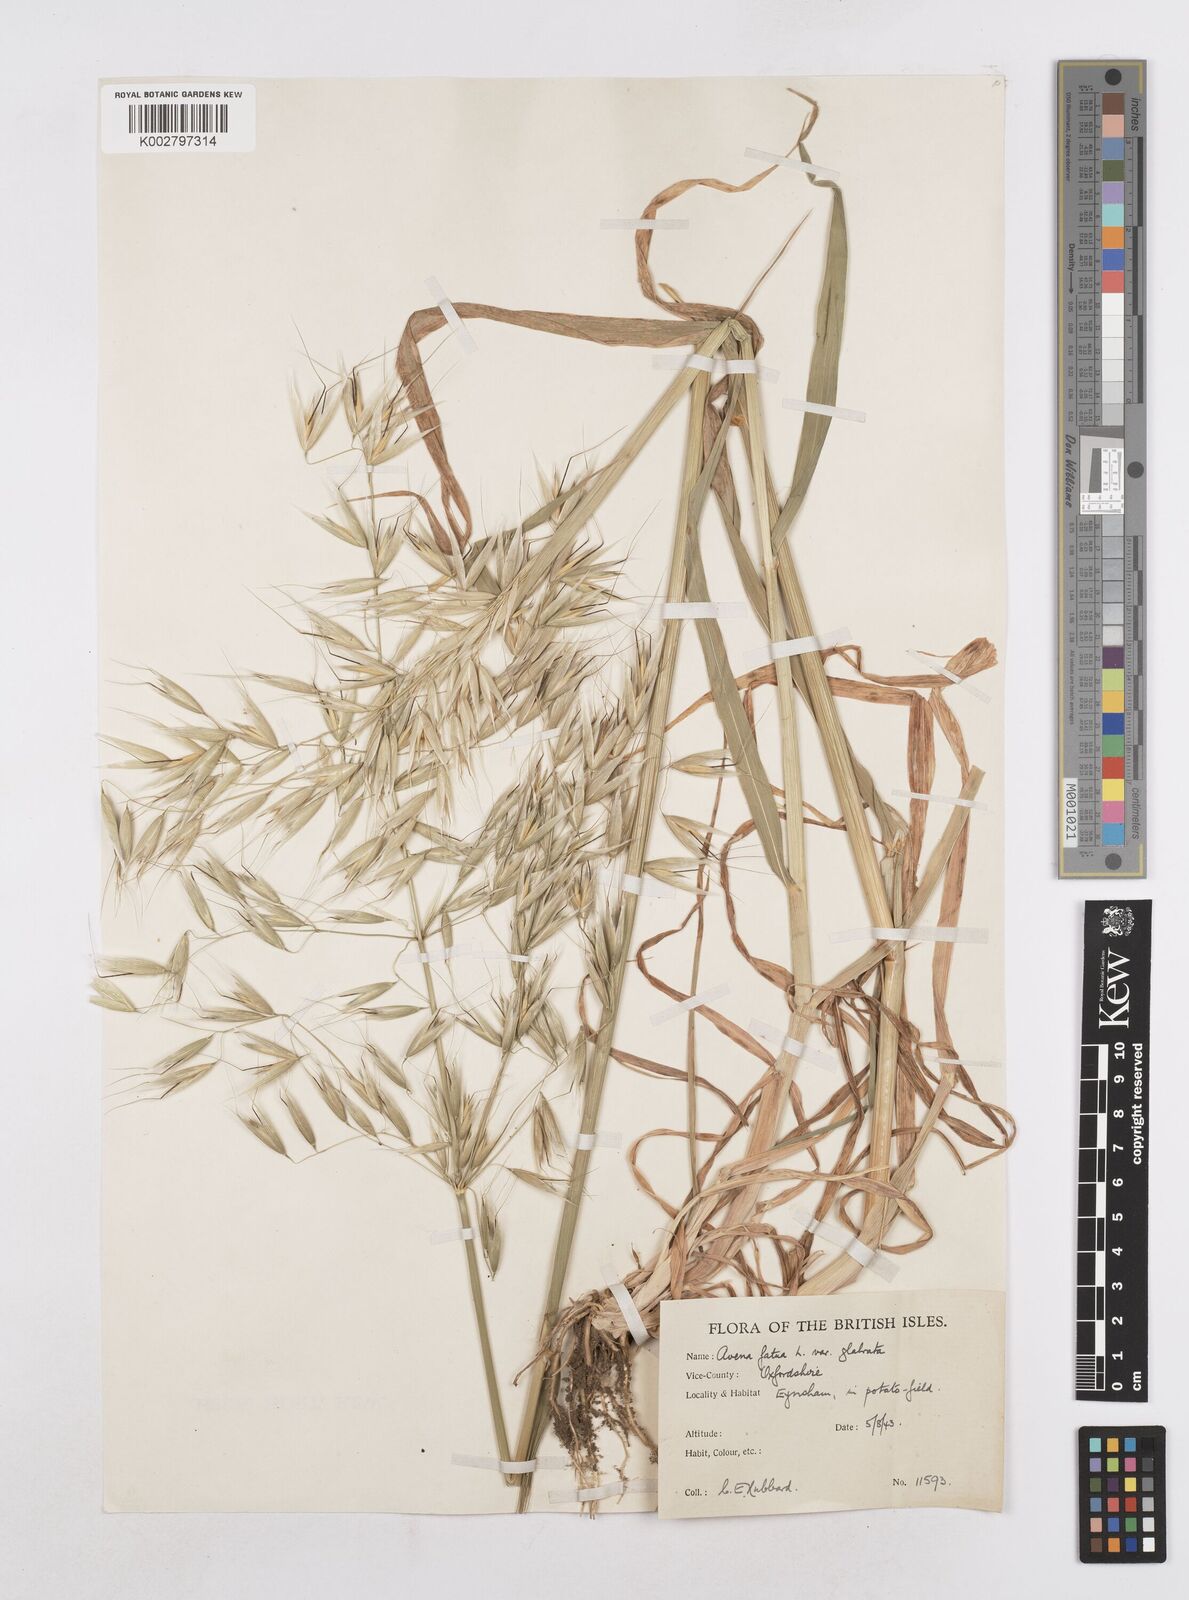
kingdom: Plantae
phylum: Tracheophyta
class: Liliopsida
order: Poales
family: Poaceae
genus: Avena
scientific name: Avena fatua
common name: Wild oat
